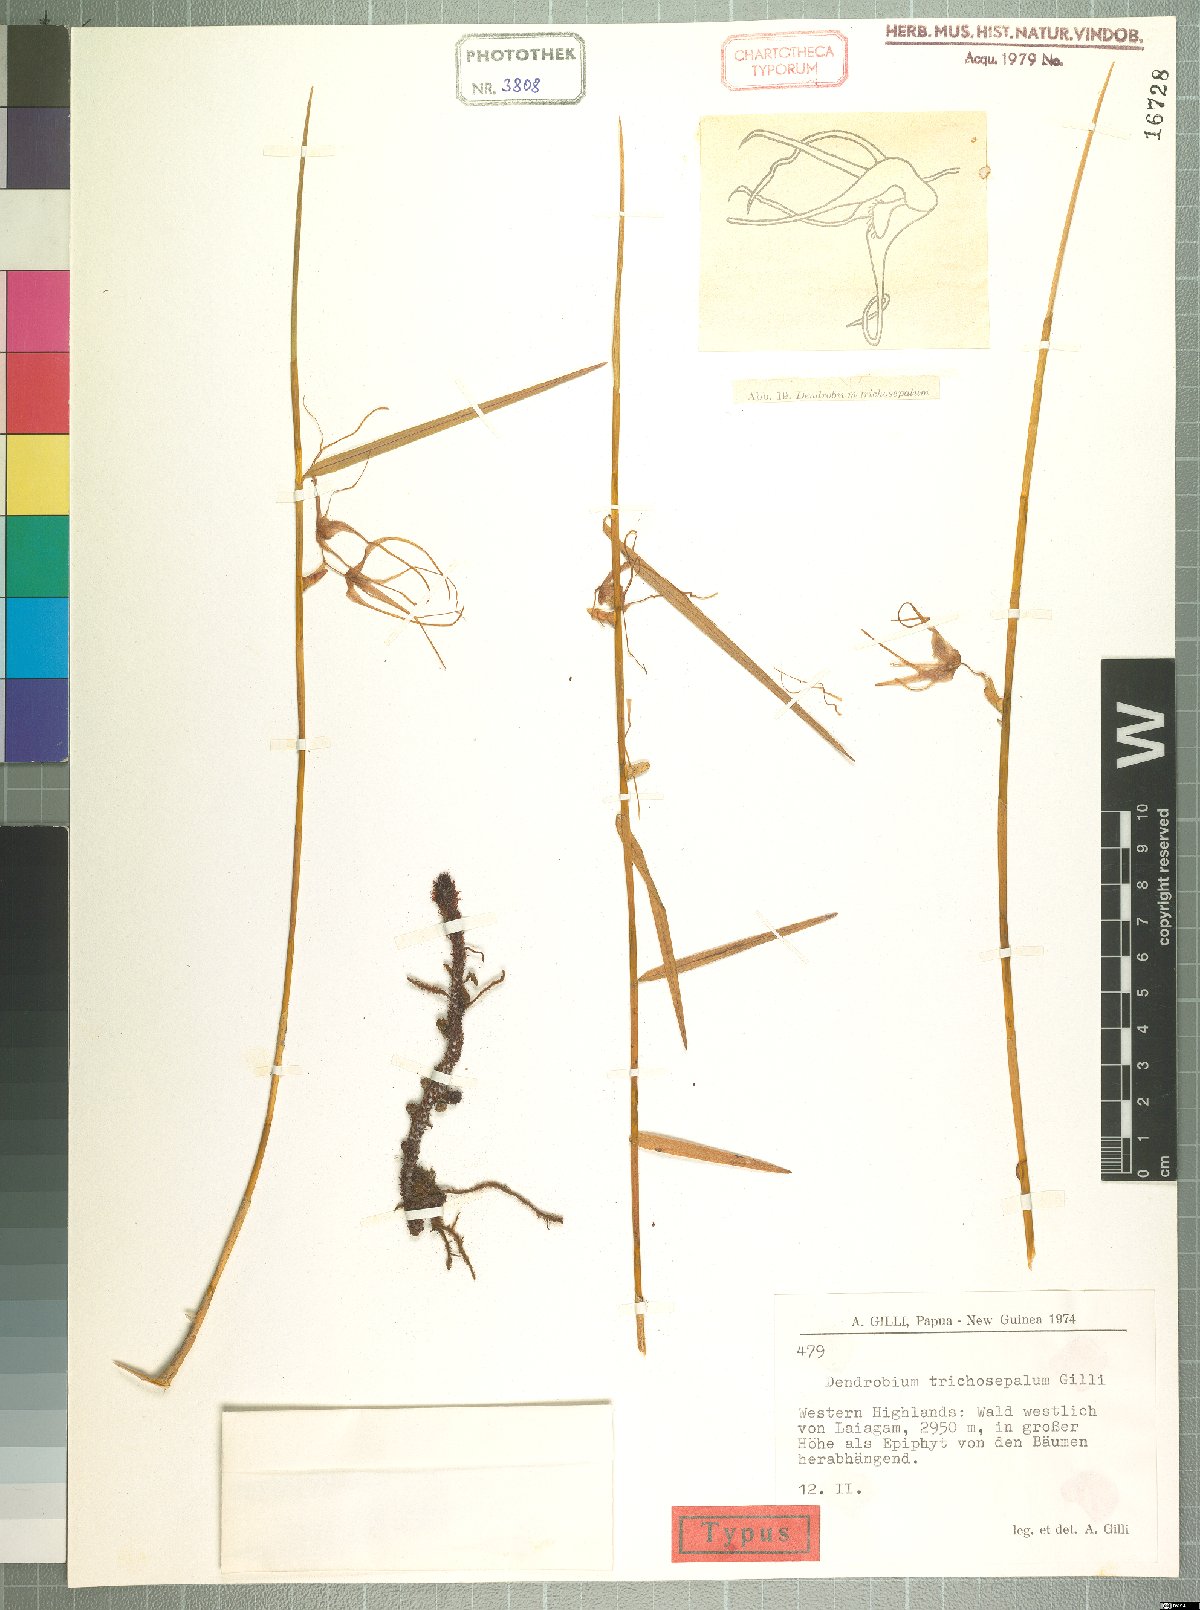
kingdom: Plantae
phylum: Tracheophyta
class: Liliopsida
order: Asparagales
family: Orchidaceae
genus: Dendrobium
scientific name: Dendrobium trichosepalum
